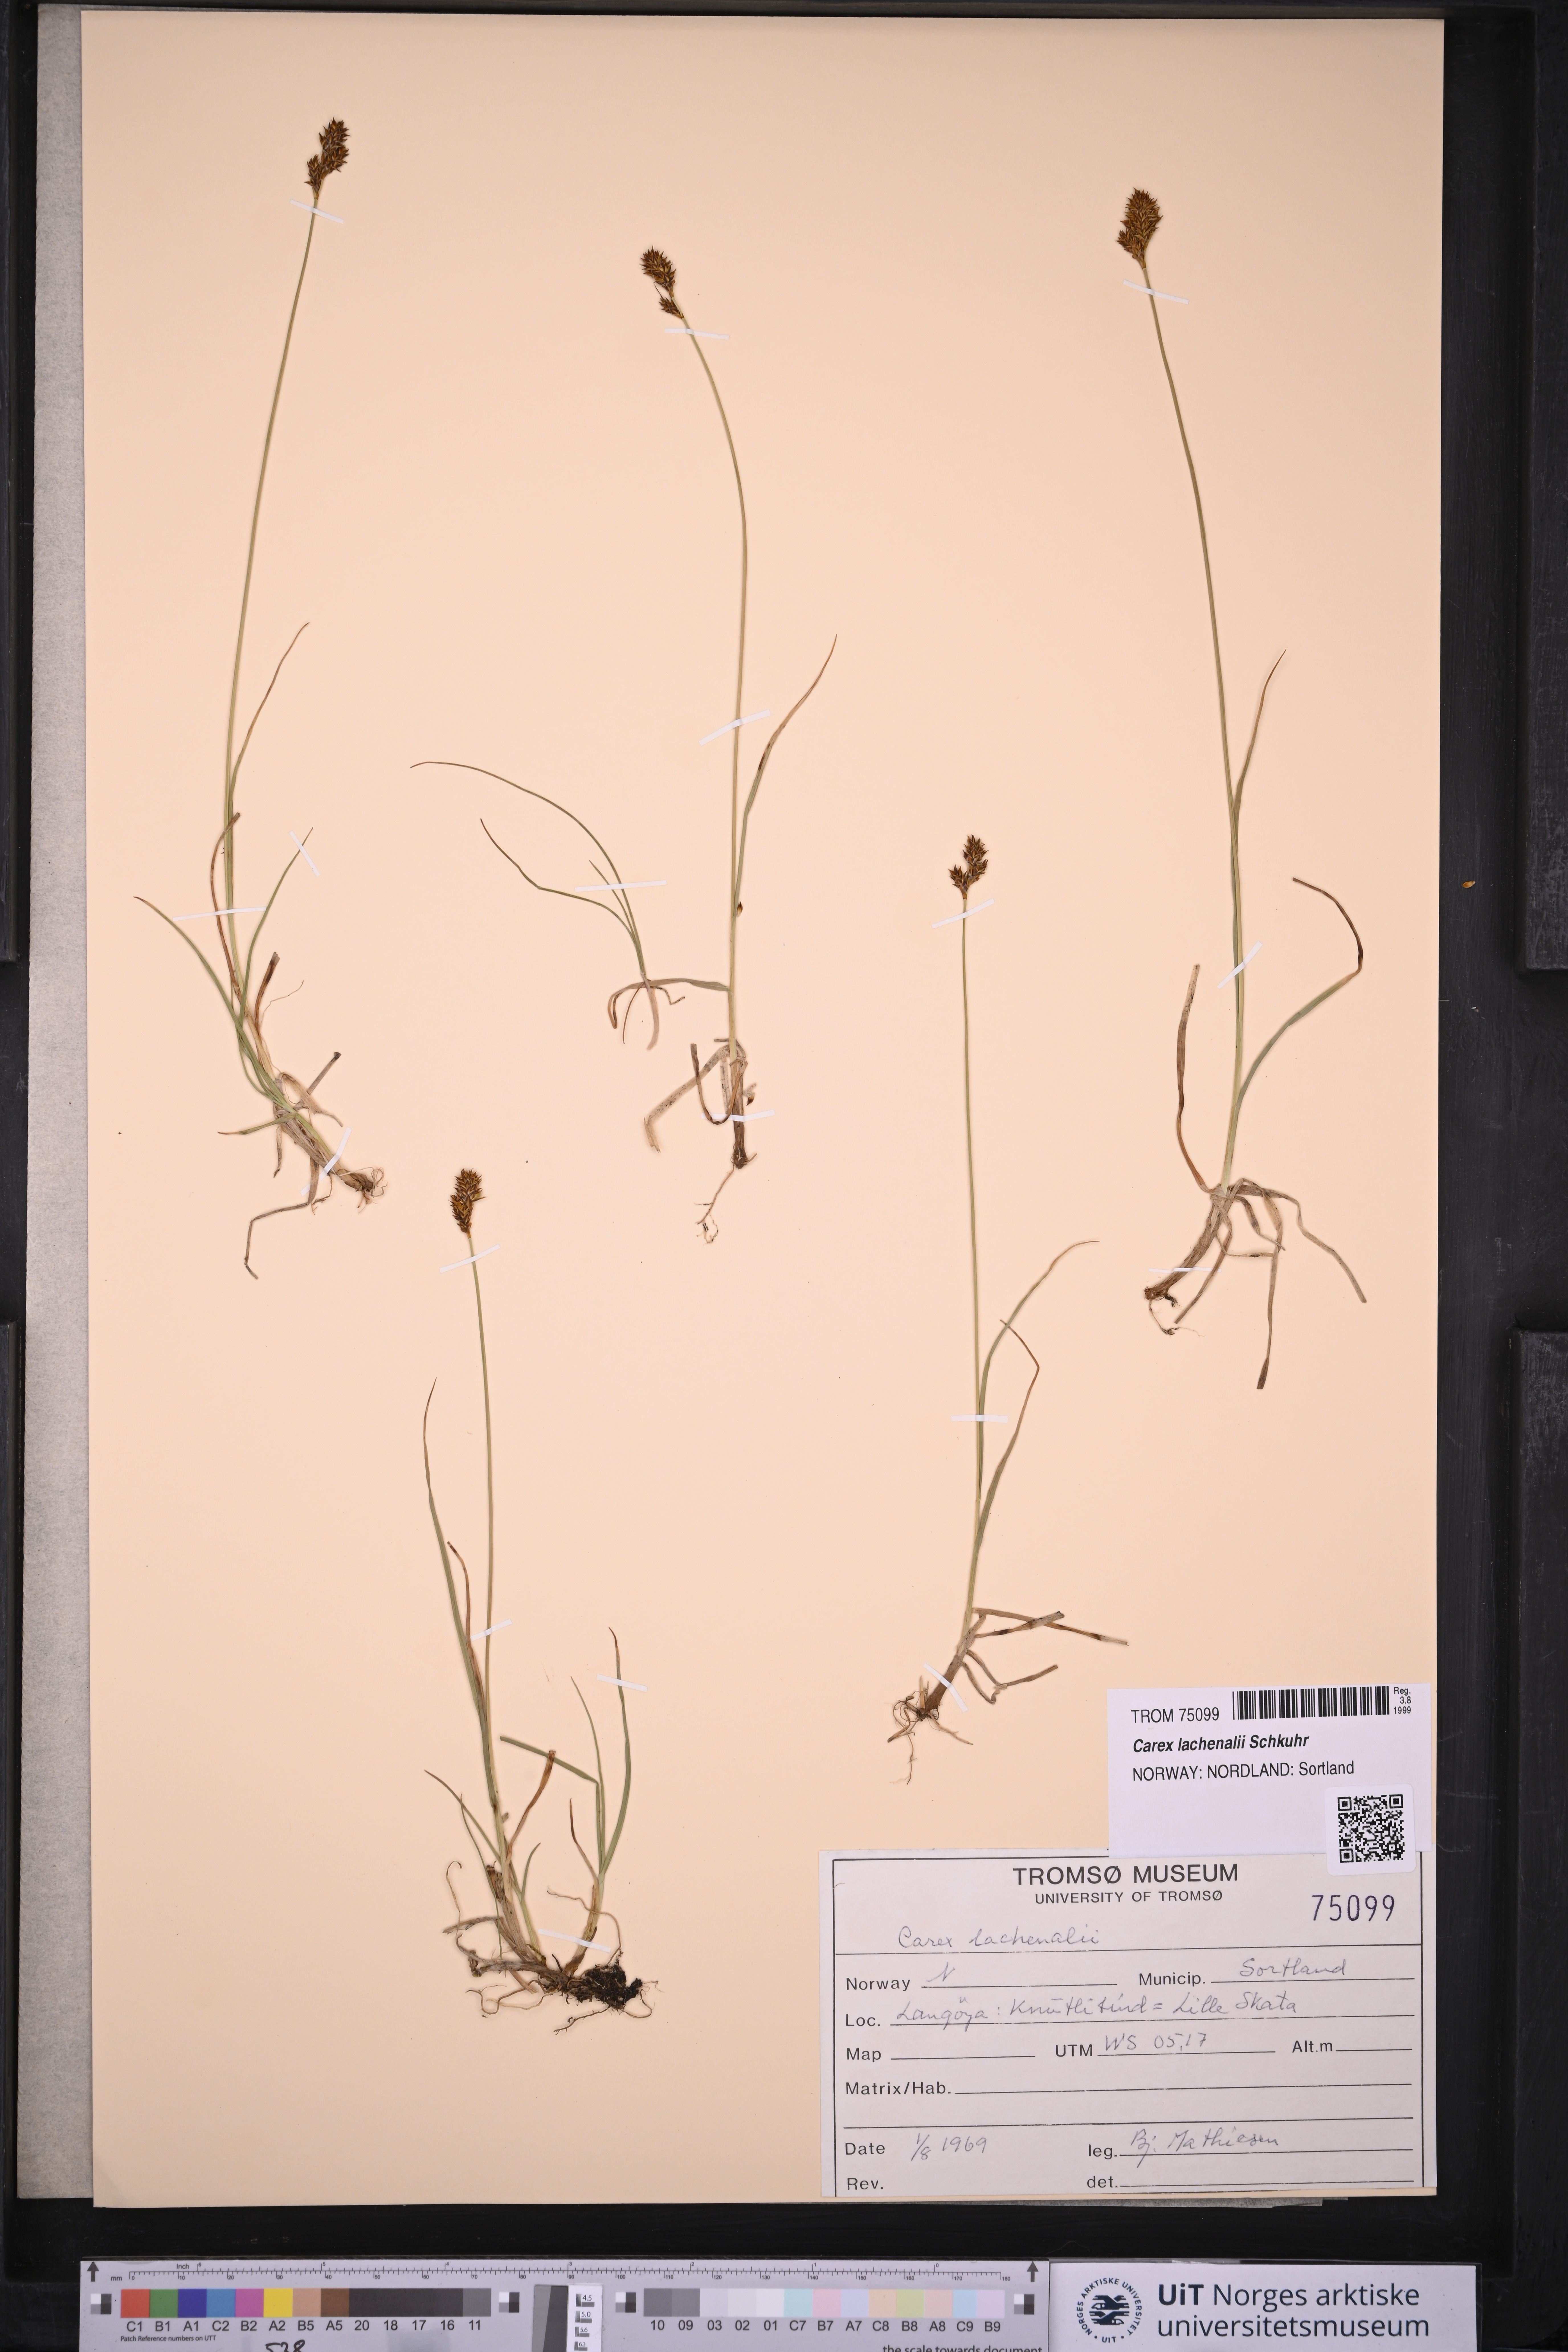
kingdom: Plantae
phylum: Tracheophyta
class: Liliopsida
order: Poales
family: Cyperaceae
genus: Carex
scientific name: Carex lachenalii
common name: Hare's-foot sedge
